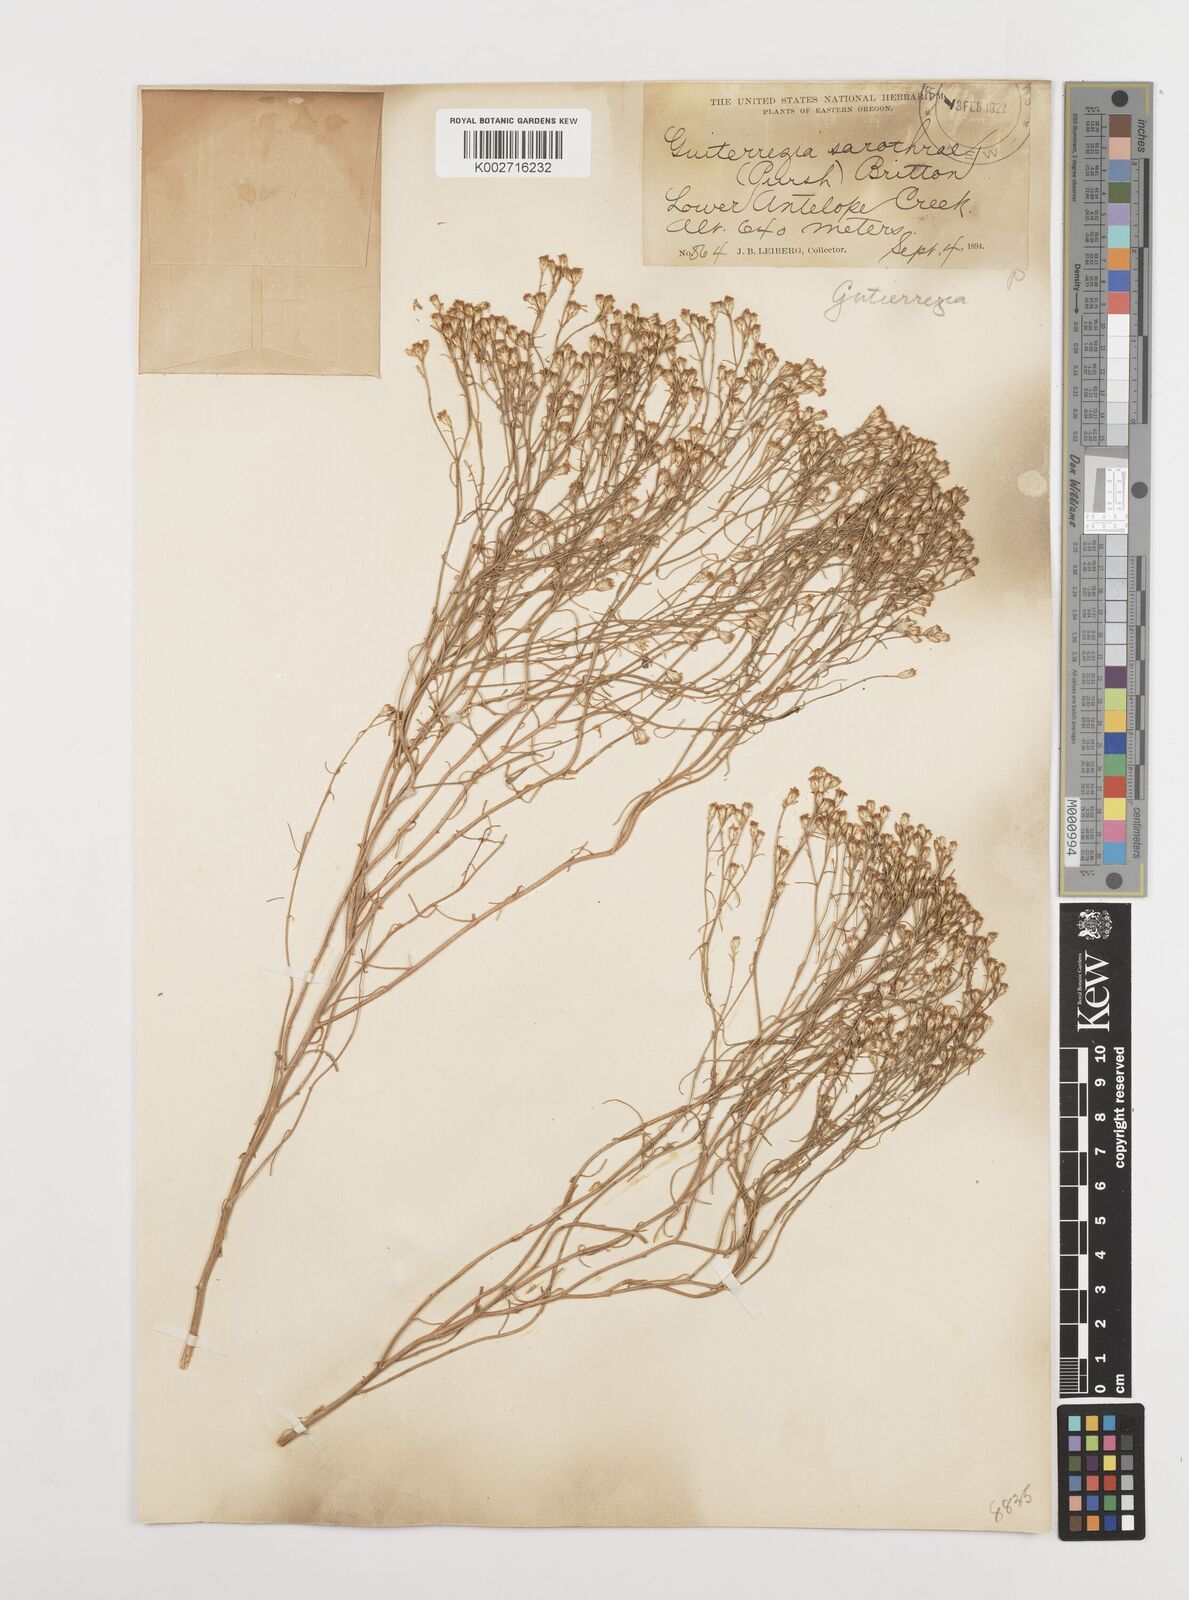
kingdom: Plantae
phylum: Tracheophyta
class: Magnoliopsida
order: Asterales
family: Asteraceae
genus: Gutierrezia
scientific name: Gutierrezia sarothrae
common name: Broom snakeweed
